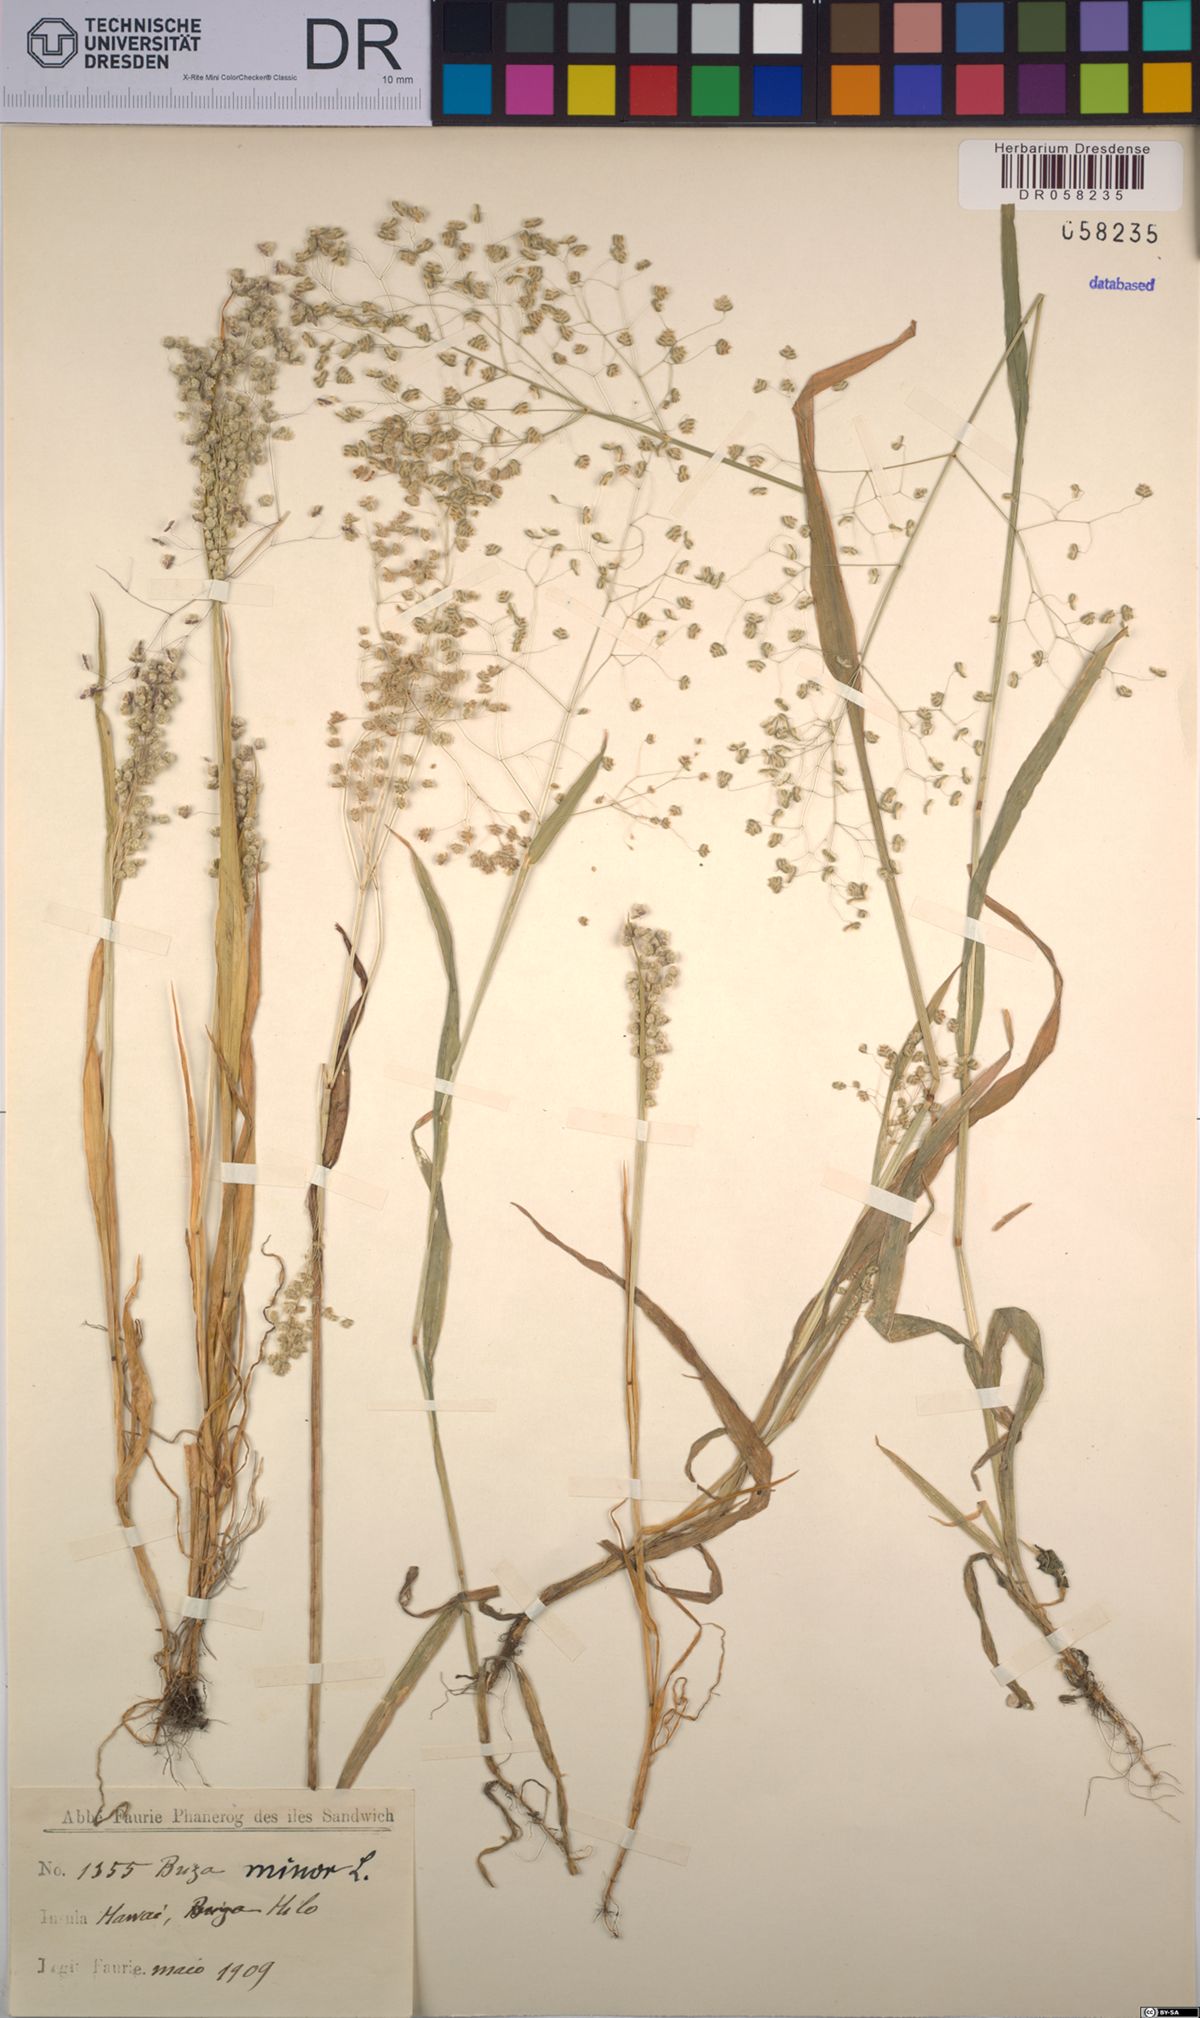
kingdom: Plantae
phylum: Tracheophyta
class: Liliopsida
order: Poales
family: Poaceae
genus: Briza
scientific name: Briza minor
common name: Lesser quaking-grass
